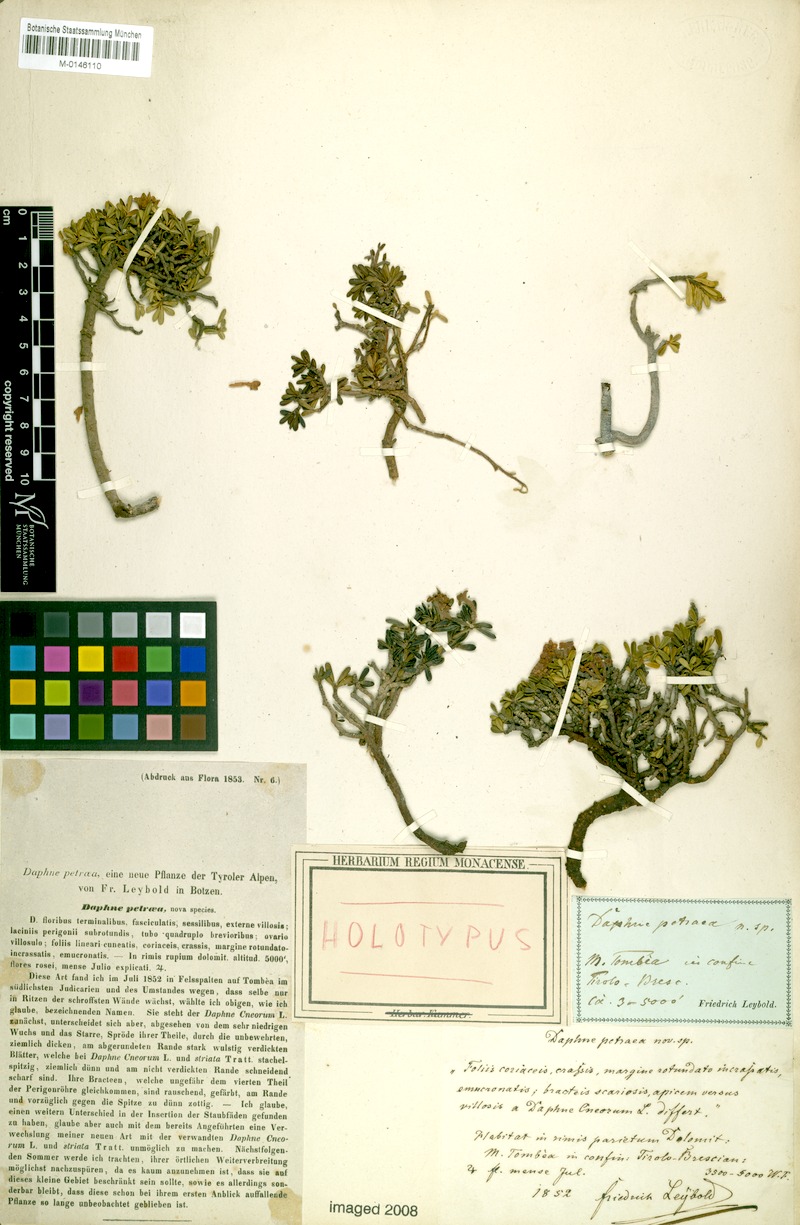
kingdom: Plantae
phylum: Tracheophyta
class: Magnoliopsida
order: Malvales
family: Thymelaeaceae
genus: Daphne
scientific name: Daphne petraea
